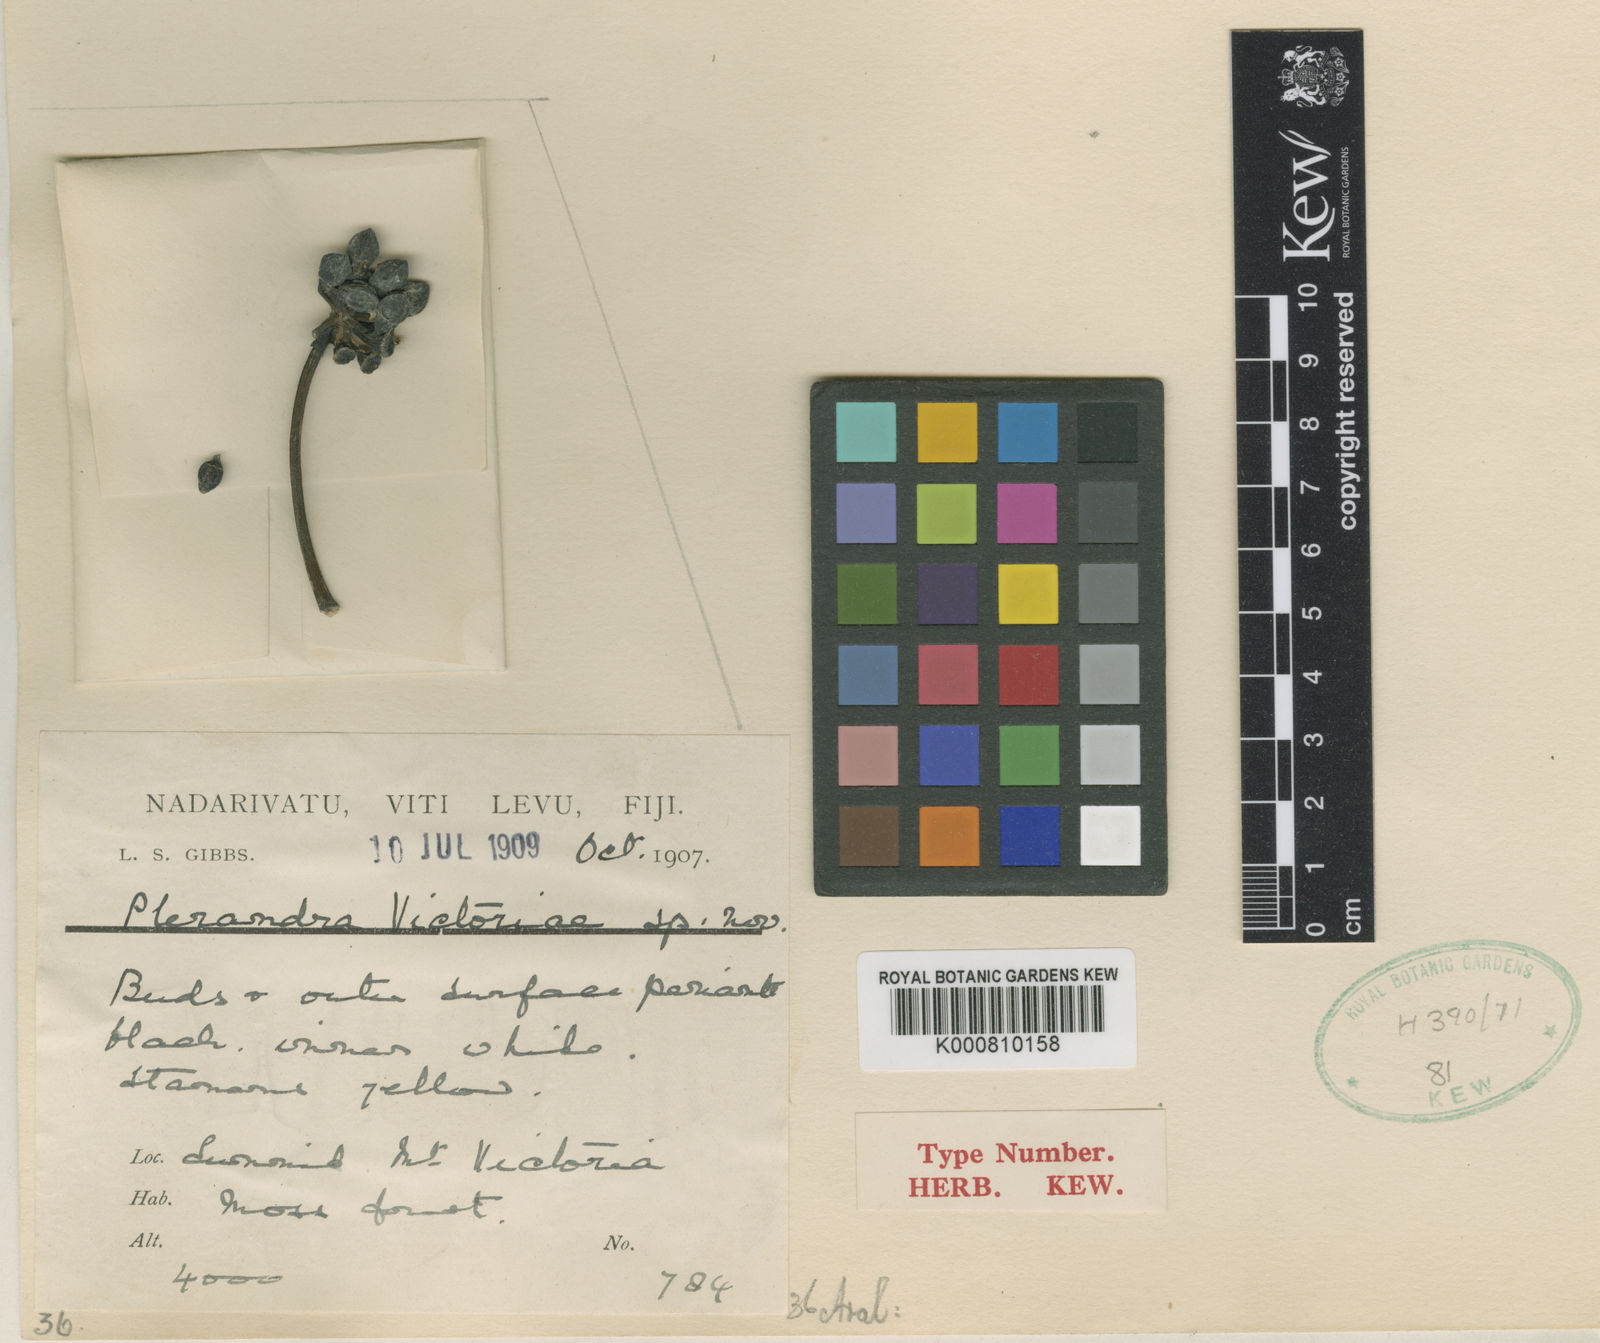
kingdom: Plantae
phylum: Tracheophyta
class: Magnoliopsida
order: Apiales
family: Araliaceae
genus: Schefflera
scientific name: Schefflera vitiensis
